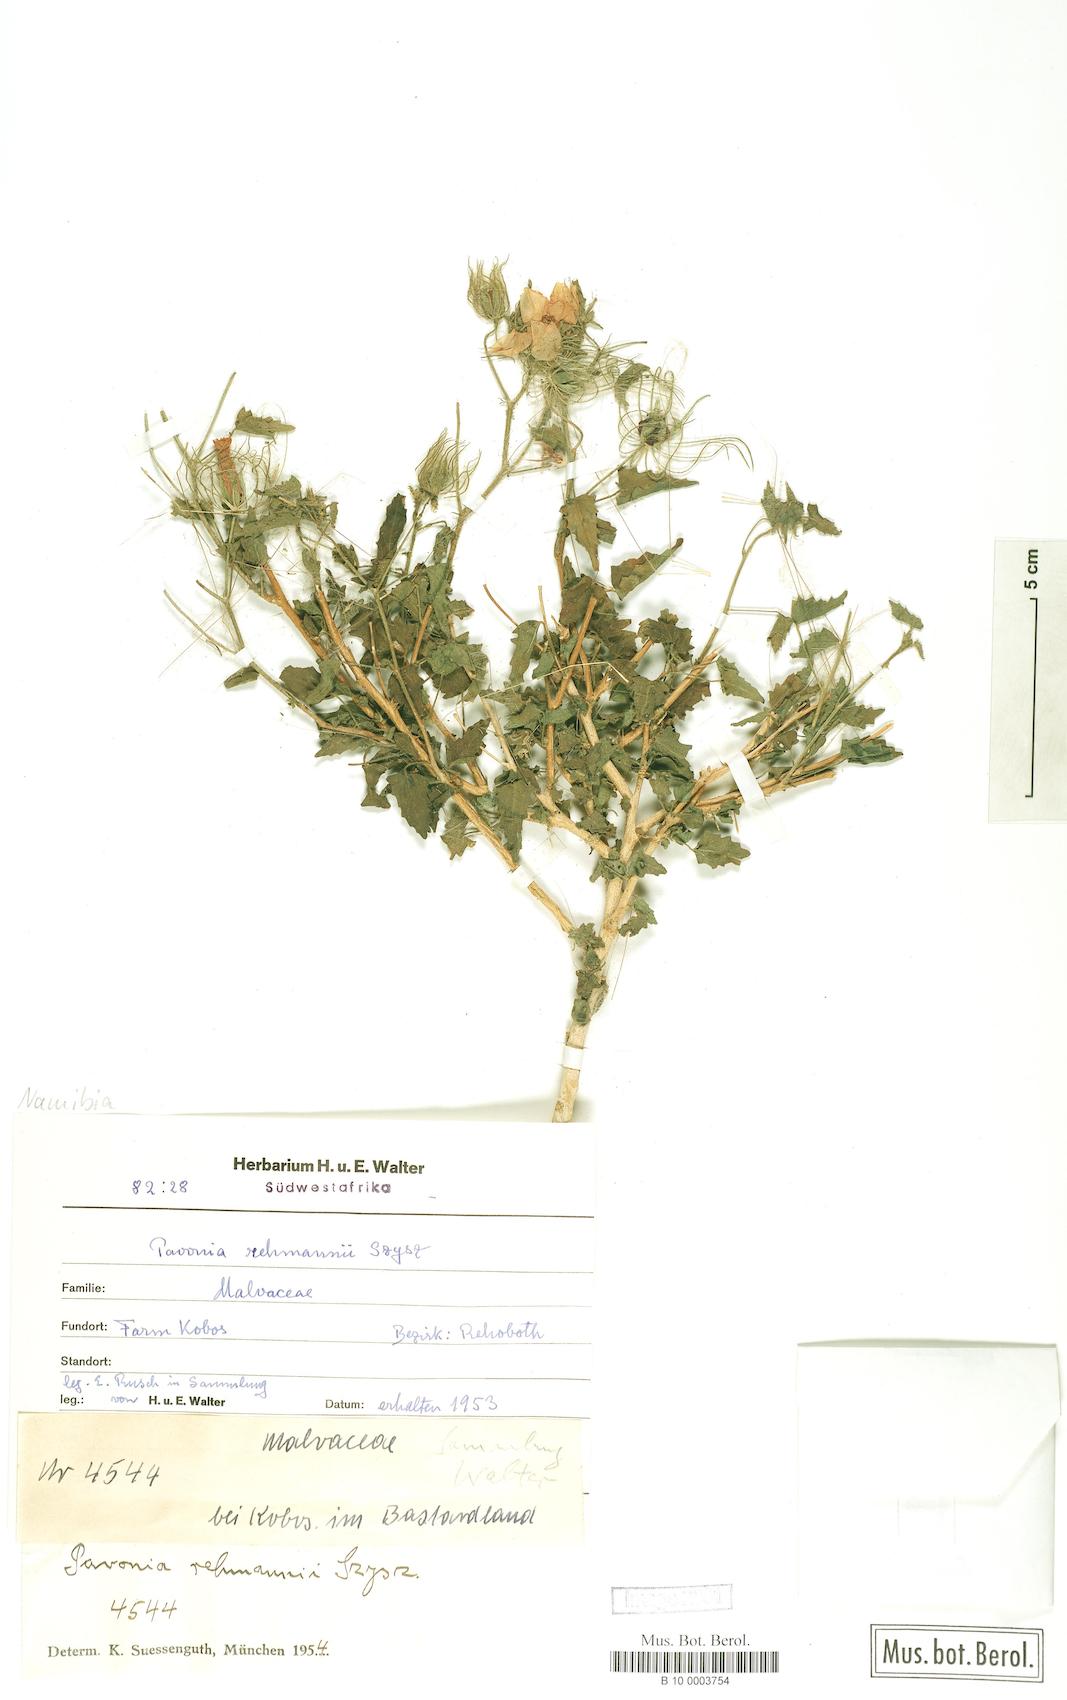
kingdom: Plantae
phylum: Tracheophyta
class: Magnoliopsida
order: Malvales
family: Malvaceae
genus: Pavonia
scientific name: Pavonia rehmannii
